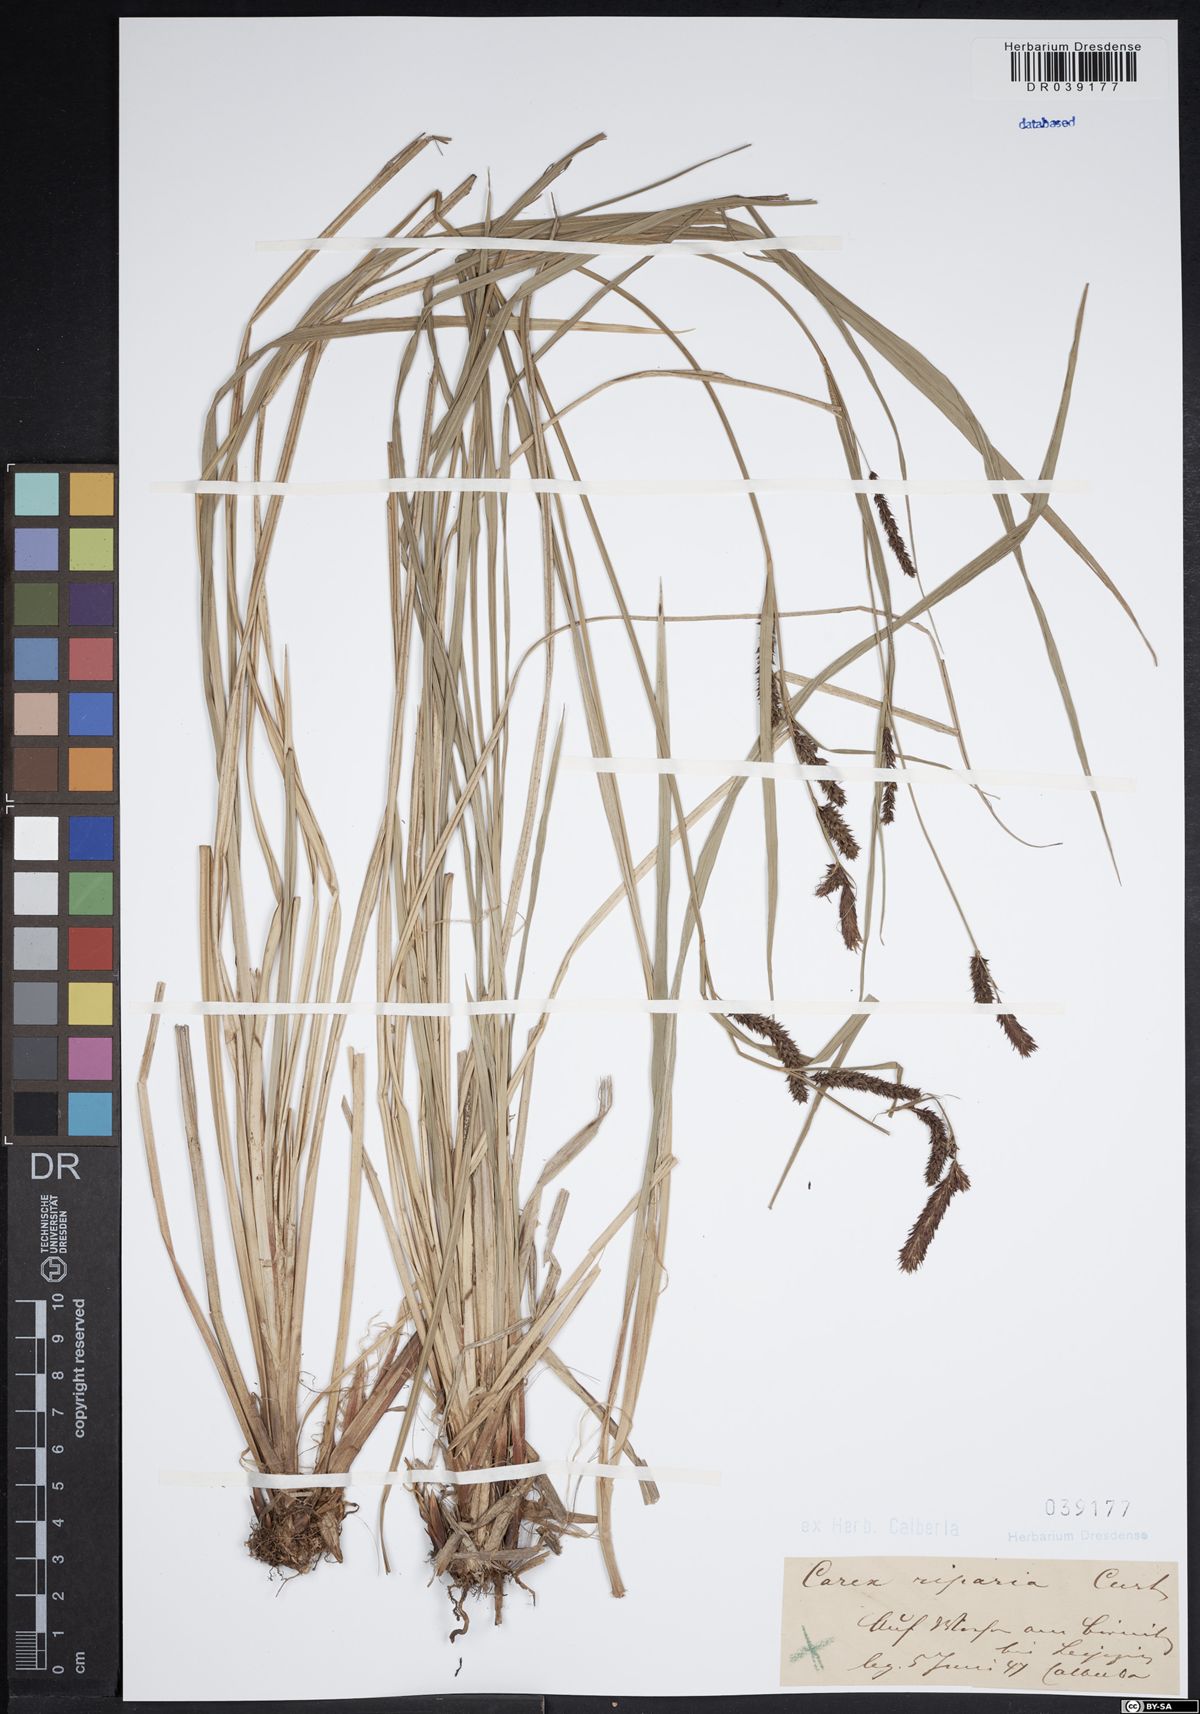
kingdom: Plantae
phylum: Tracheophyta
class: Liliopsida
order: Poales
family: Cyperaceae
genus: Carex
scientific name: Carex riparia
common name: Greater pond-sedge
